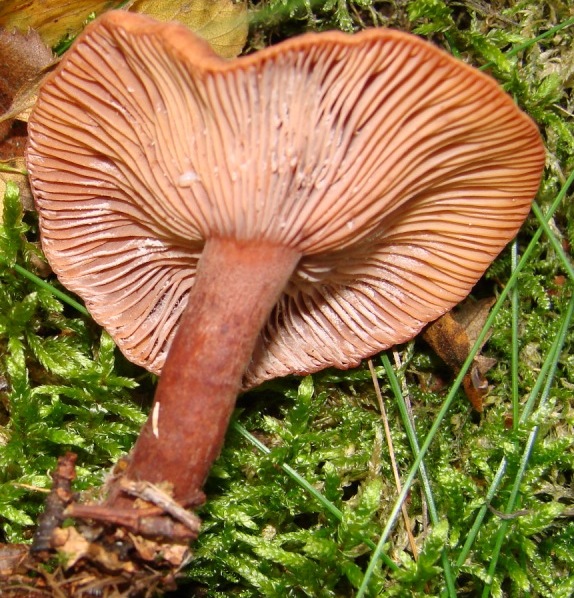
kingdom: Fungi
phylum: Basidiomycota
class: Agaricomycetes
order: Russulales
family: Russulaceae
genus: Lactarius
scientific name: Lactarius camphoratus
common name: kamfer-mælkehat
